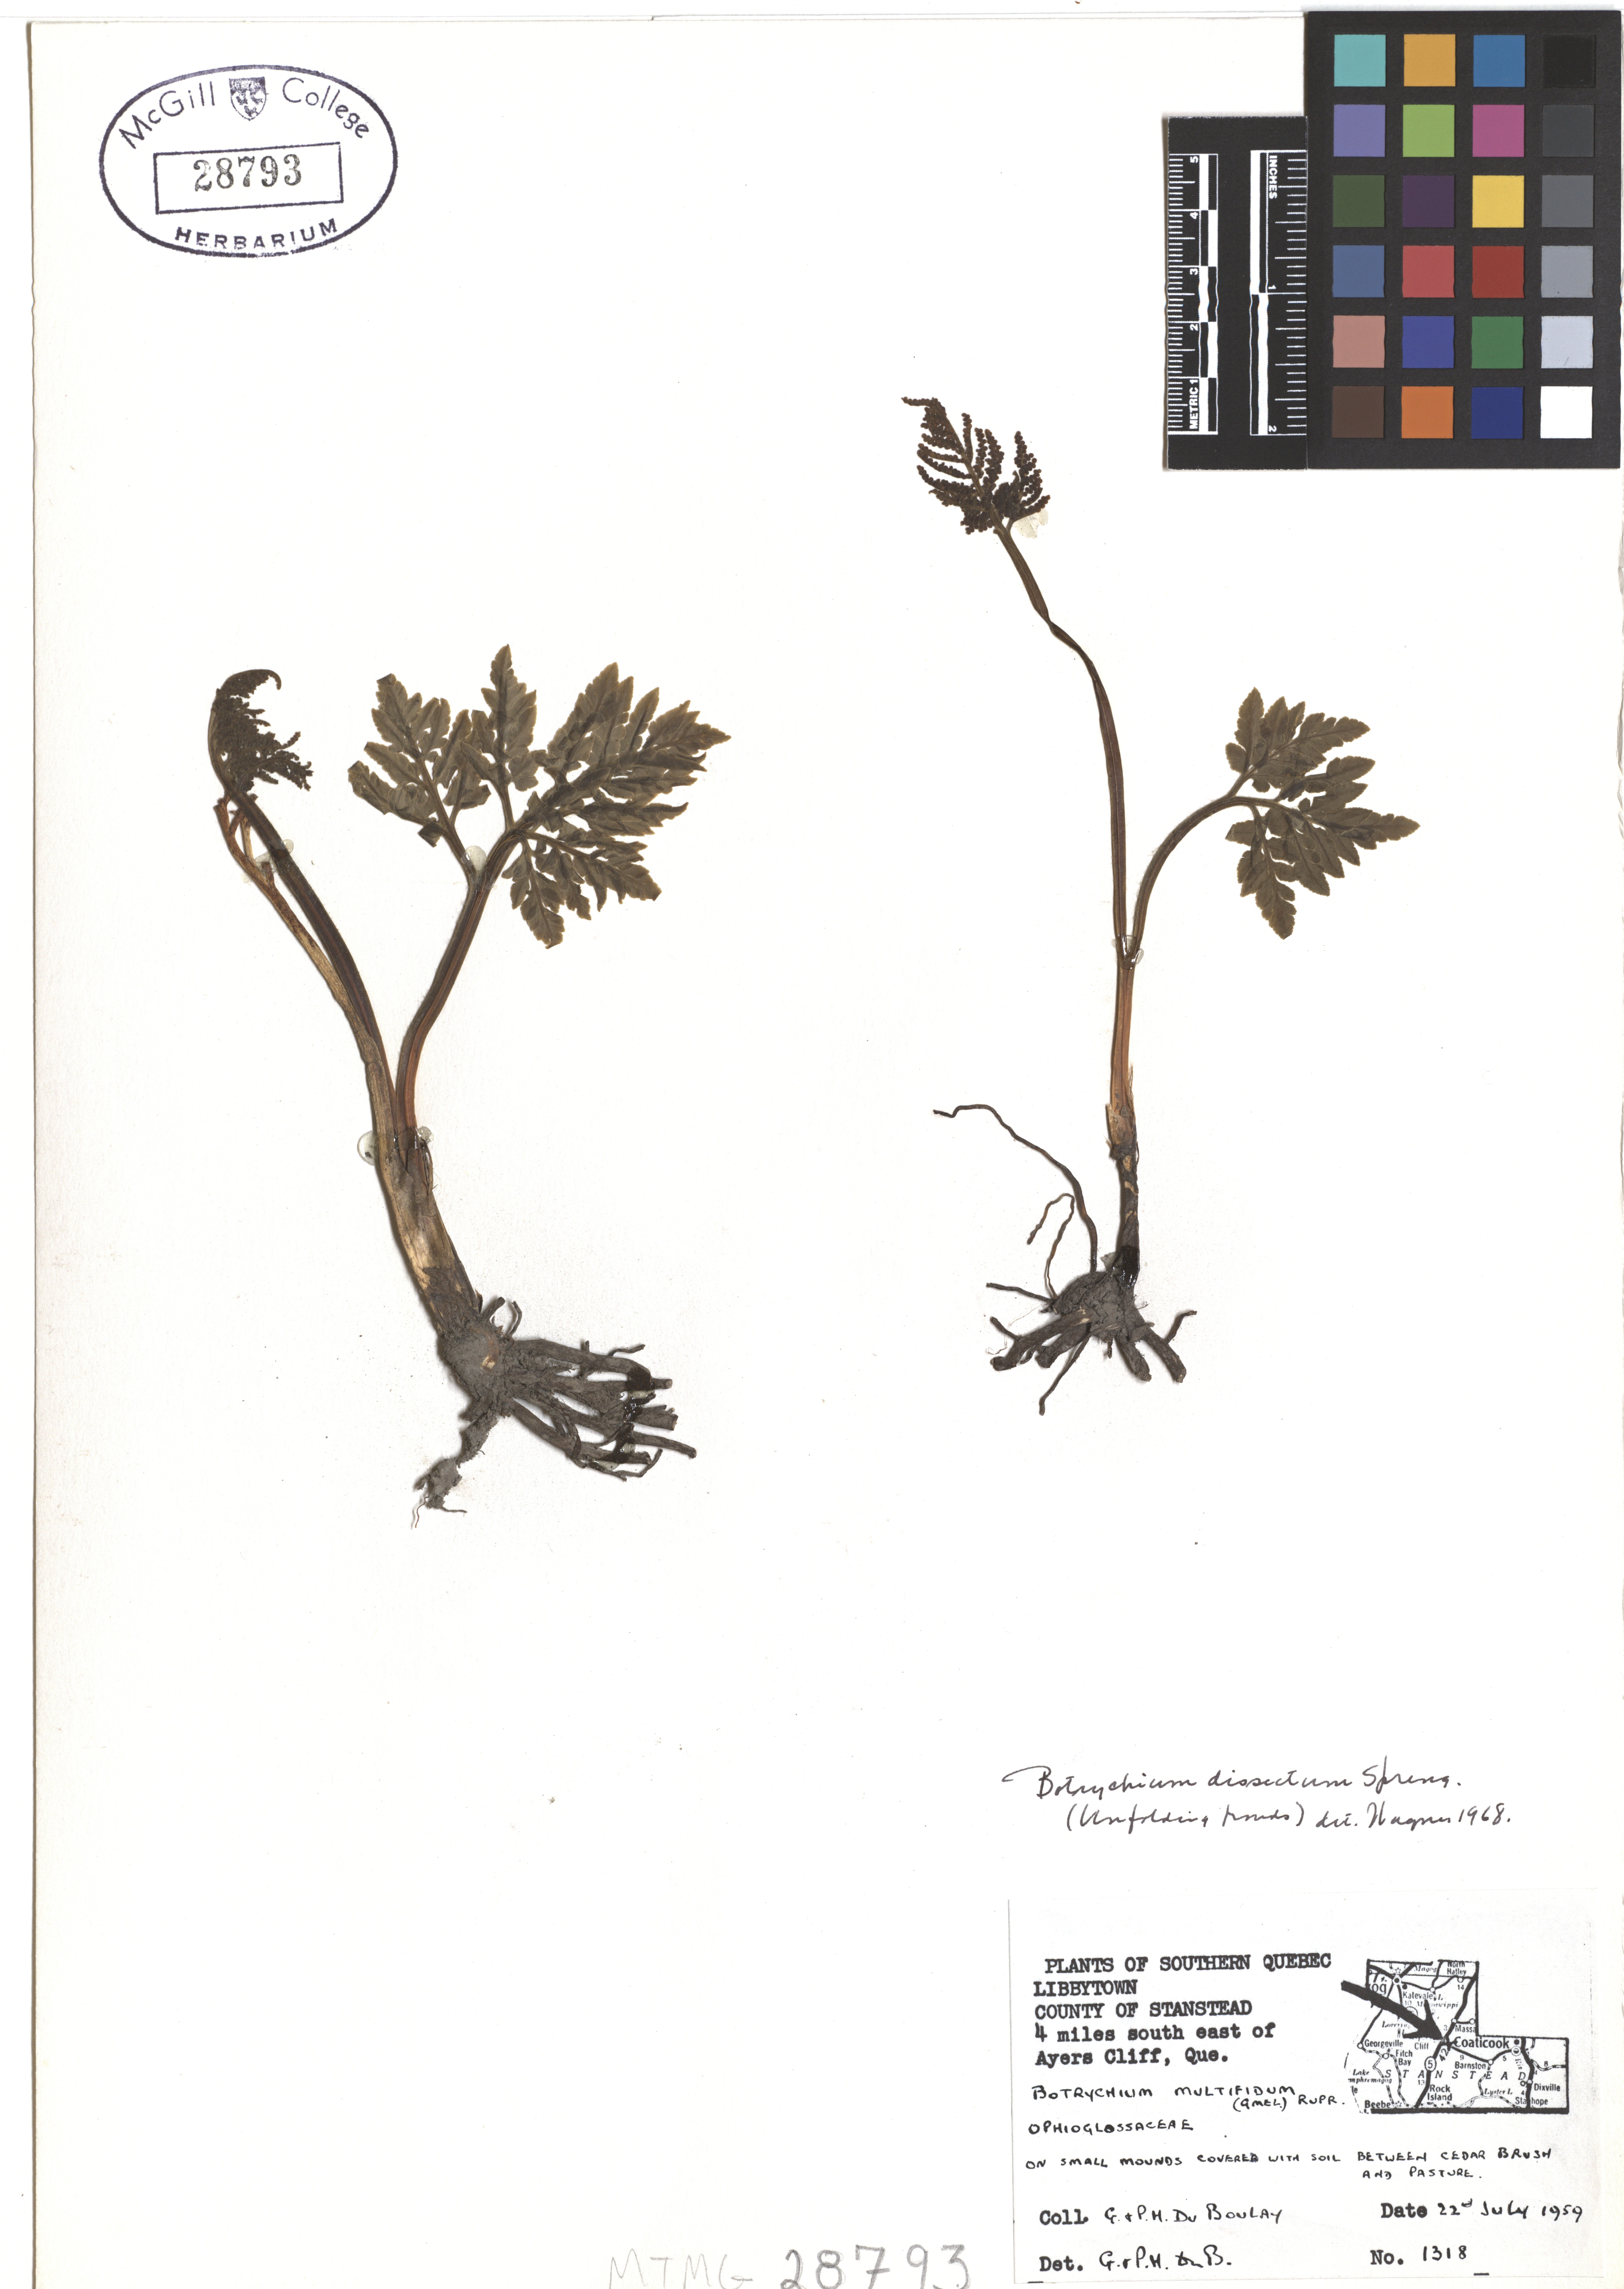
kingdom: Plantae
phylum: Tracheophyta
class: Polypodiopsida
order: Ophioglossales
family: Ophioglossaceae
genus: Sceptridium
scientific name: Sceptridium dissectum
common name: Cut-leaved grapefern
